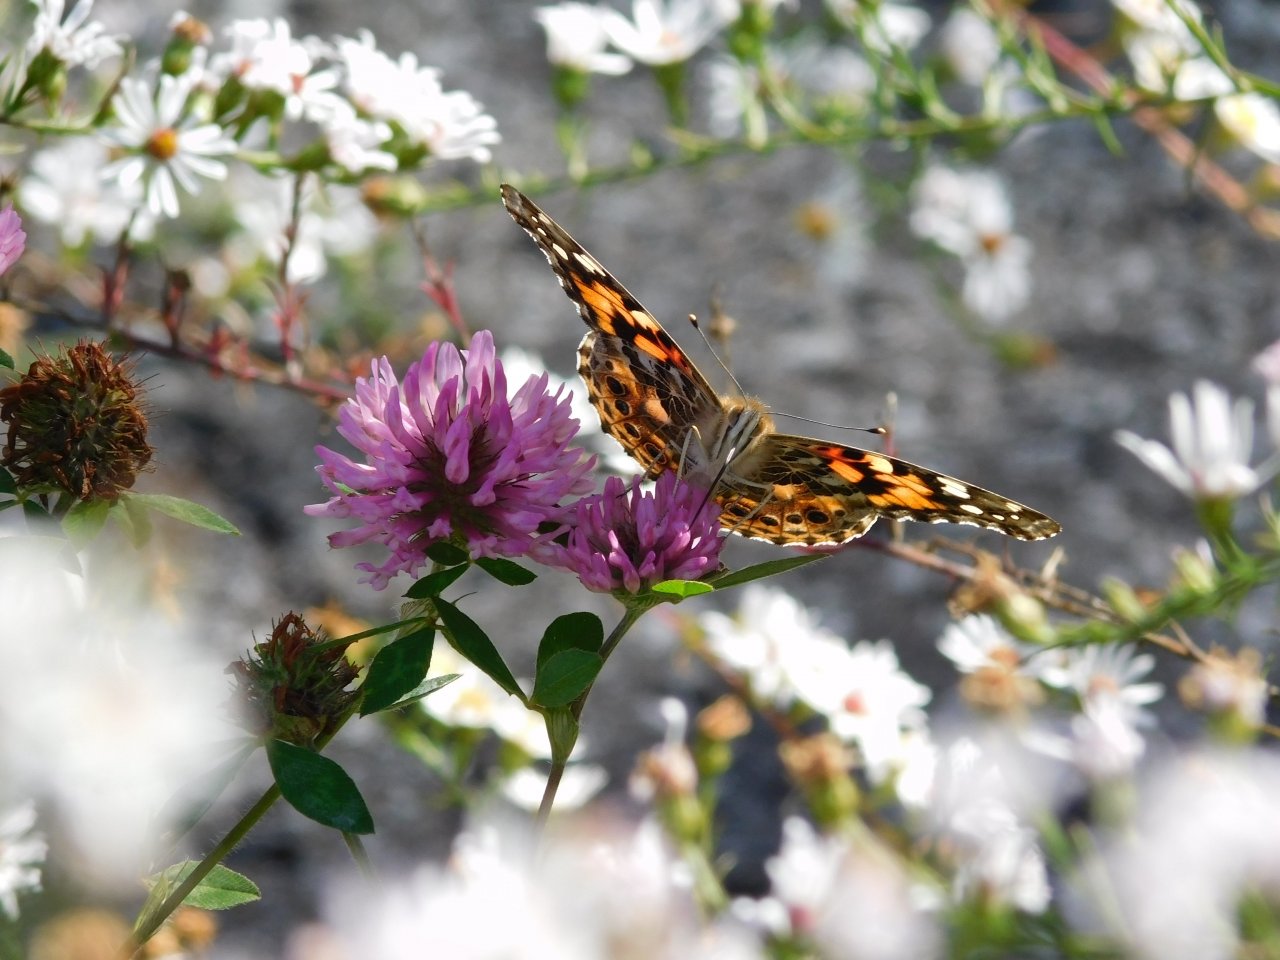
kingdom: Animalia
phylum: Arthropoda
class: Insecta
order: Lepidoptera
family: Nymphalidae
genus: Vanessa
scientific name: Vanessa cardui
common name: Painted Lady
